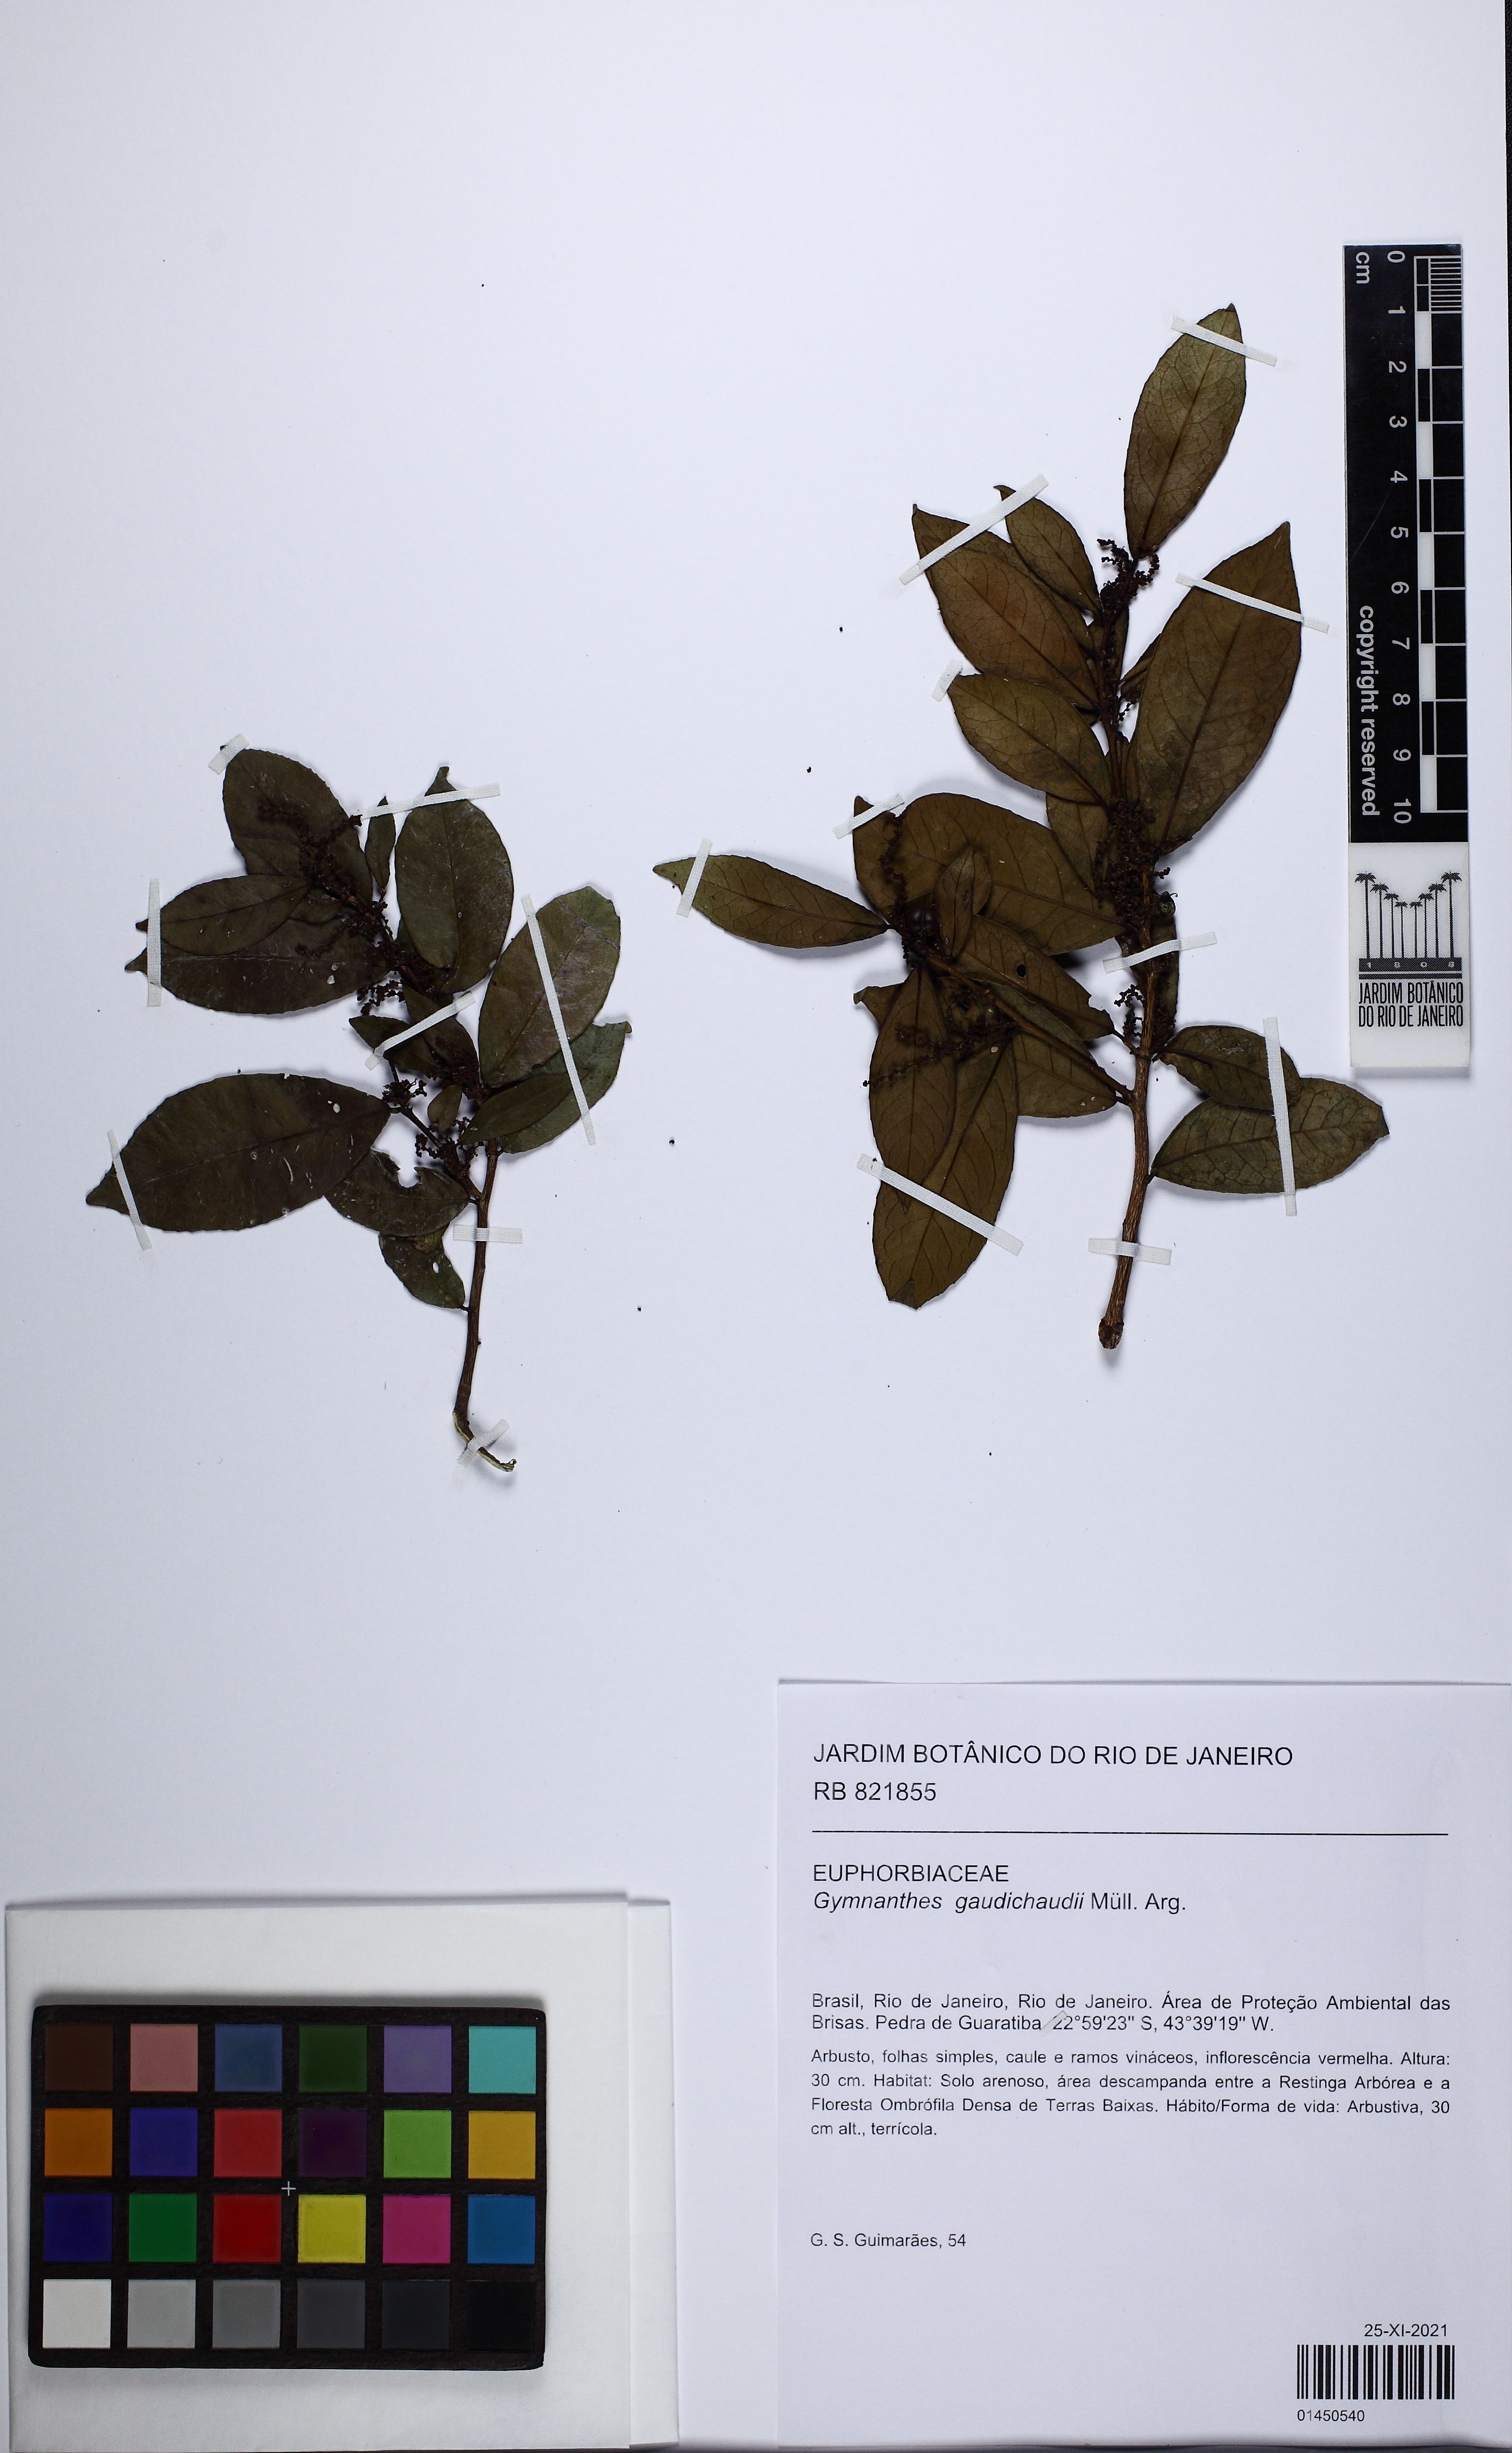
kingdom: Plantae
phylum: Tracheophyta
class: Magnoliopsida
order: Malpighiales
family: Euphorbiaceae
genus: Gymnanthes
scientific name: Gymnanthes gaudichaudii
